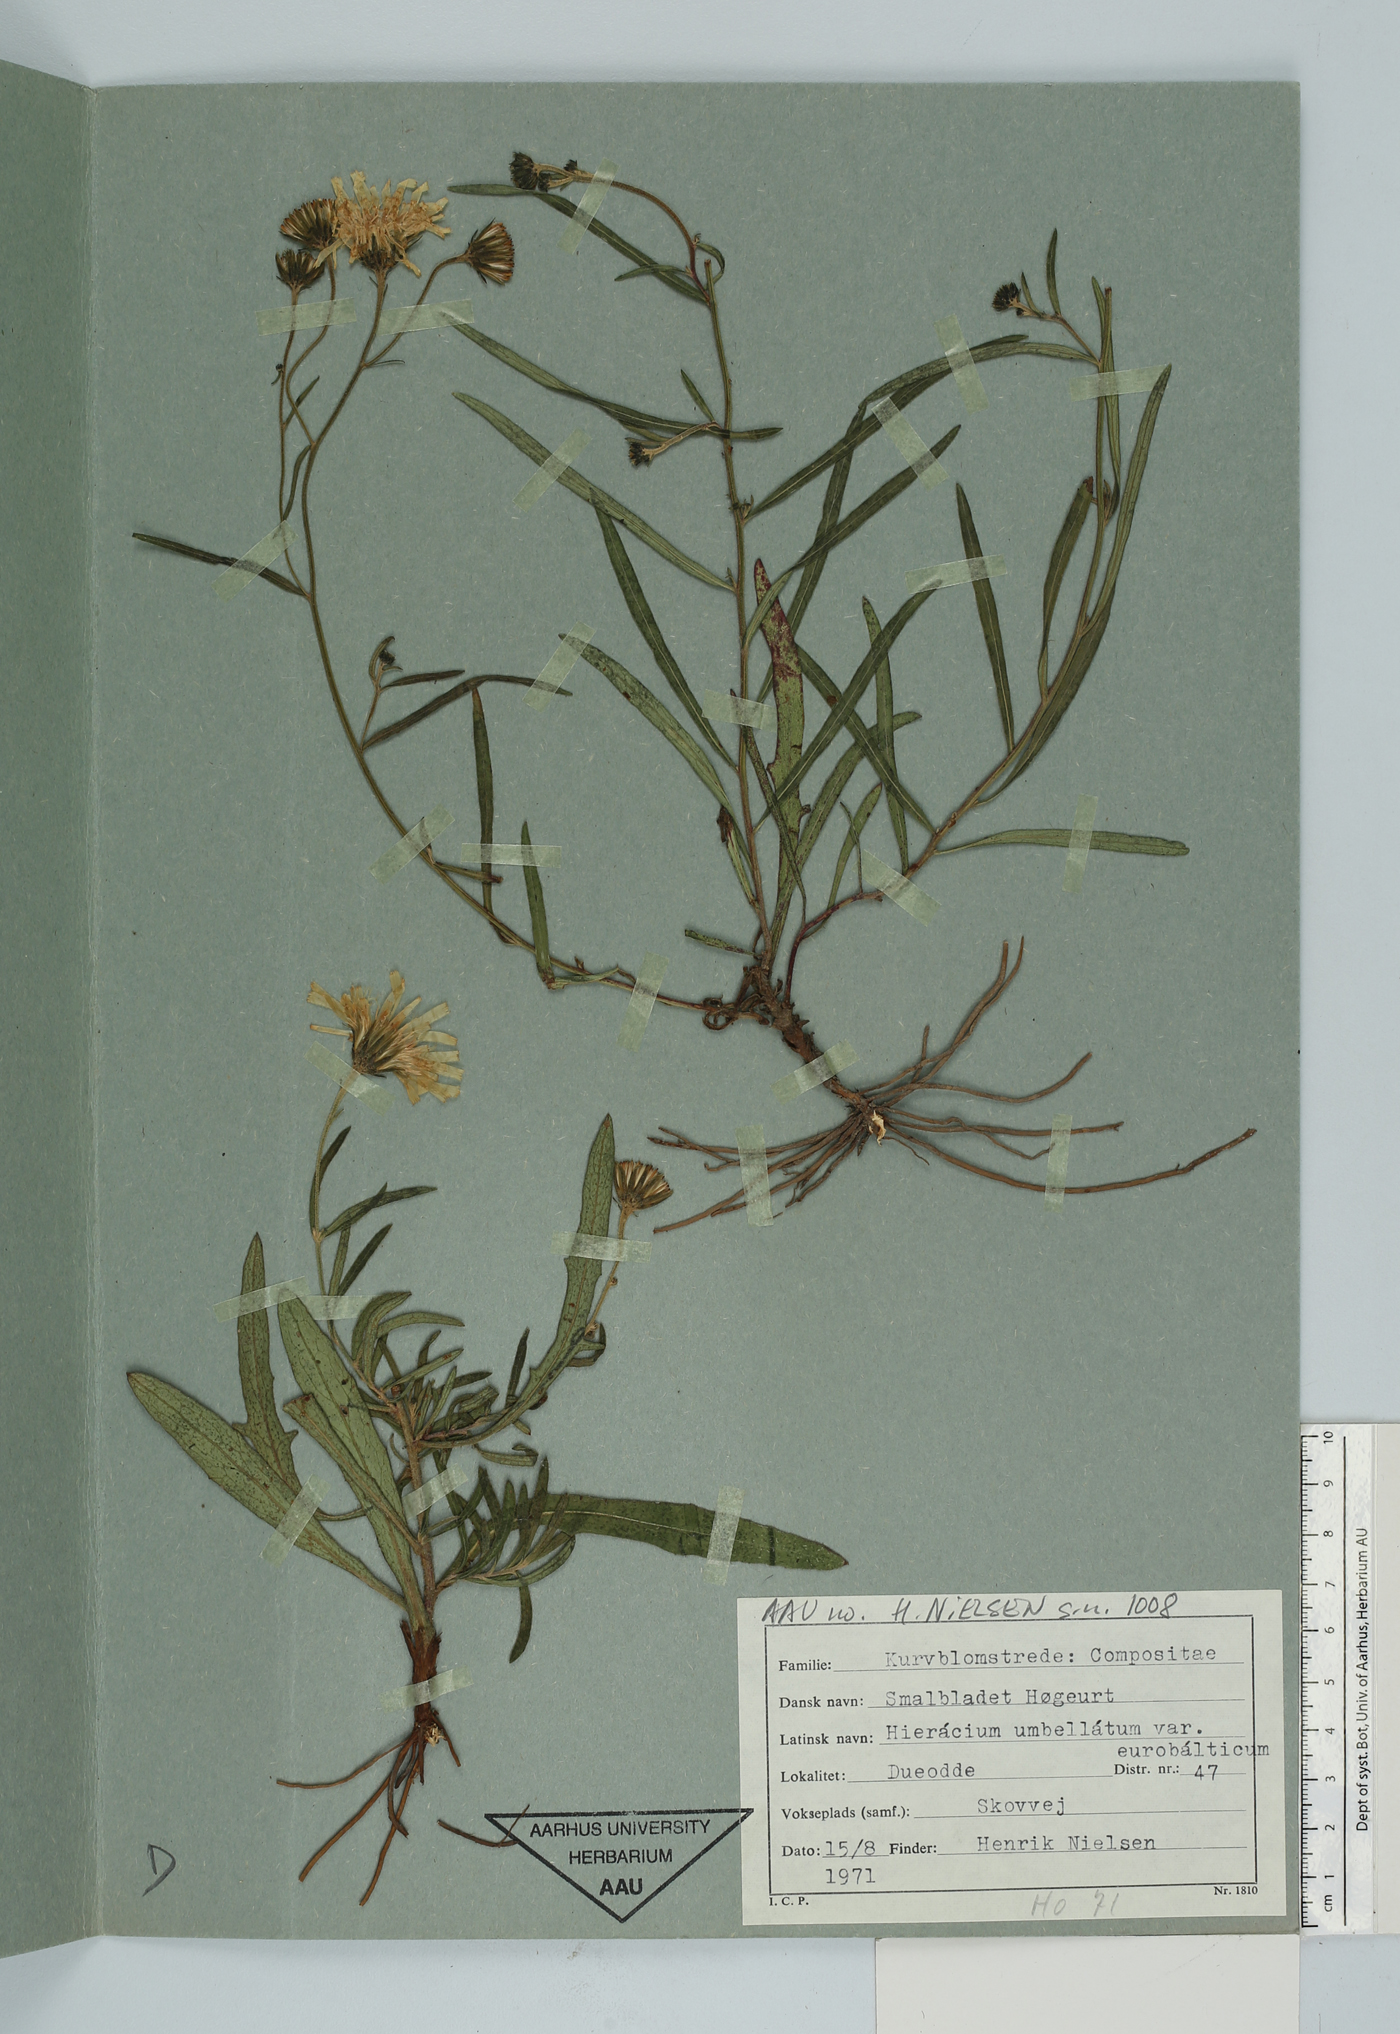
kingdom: Plantae
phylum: Tracheophyta
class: Magnoliopsida
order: Asterales
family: Asteraceae
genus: Hieracium
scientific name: Hieracium umbellatum
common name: Northern hawkweed
